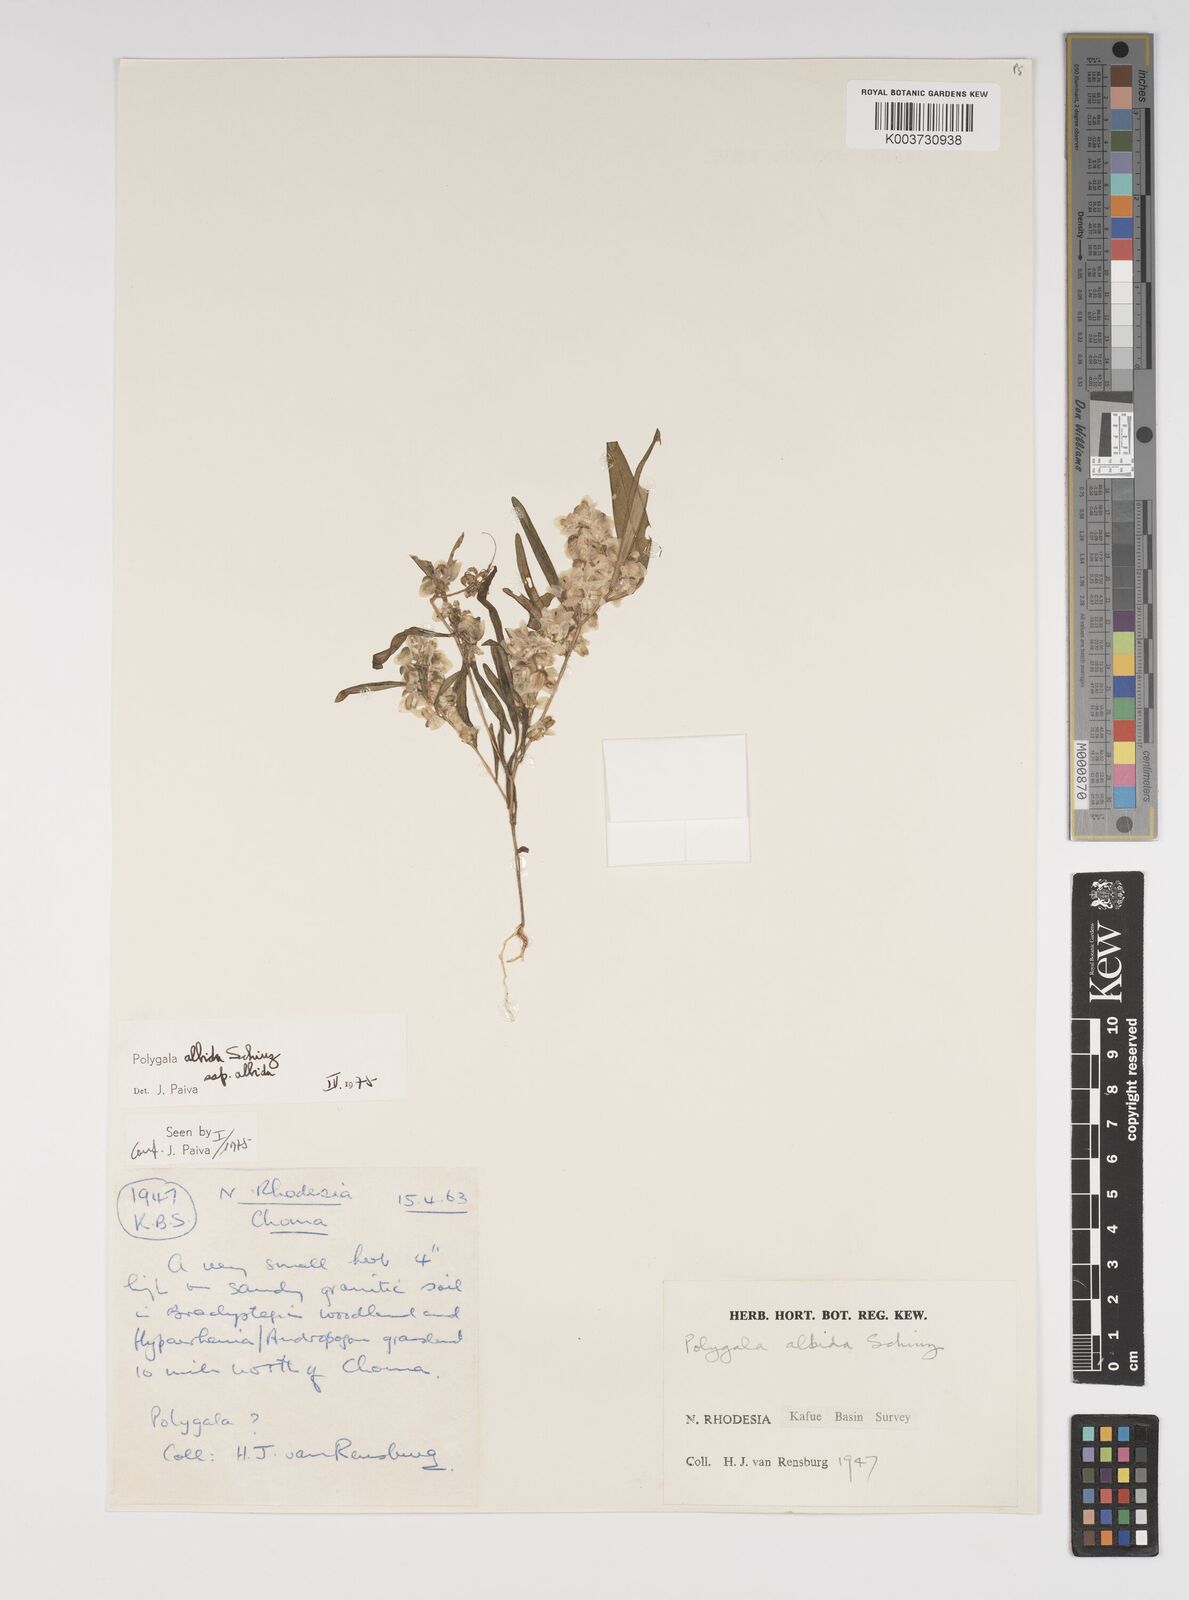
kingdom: Plantae
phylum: Tracheophyta
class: Magnoliopsida
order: Fabales
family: Polygalaceae
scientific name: Polygalaceae
